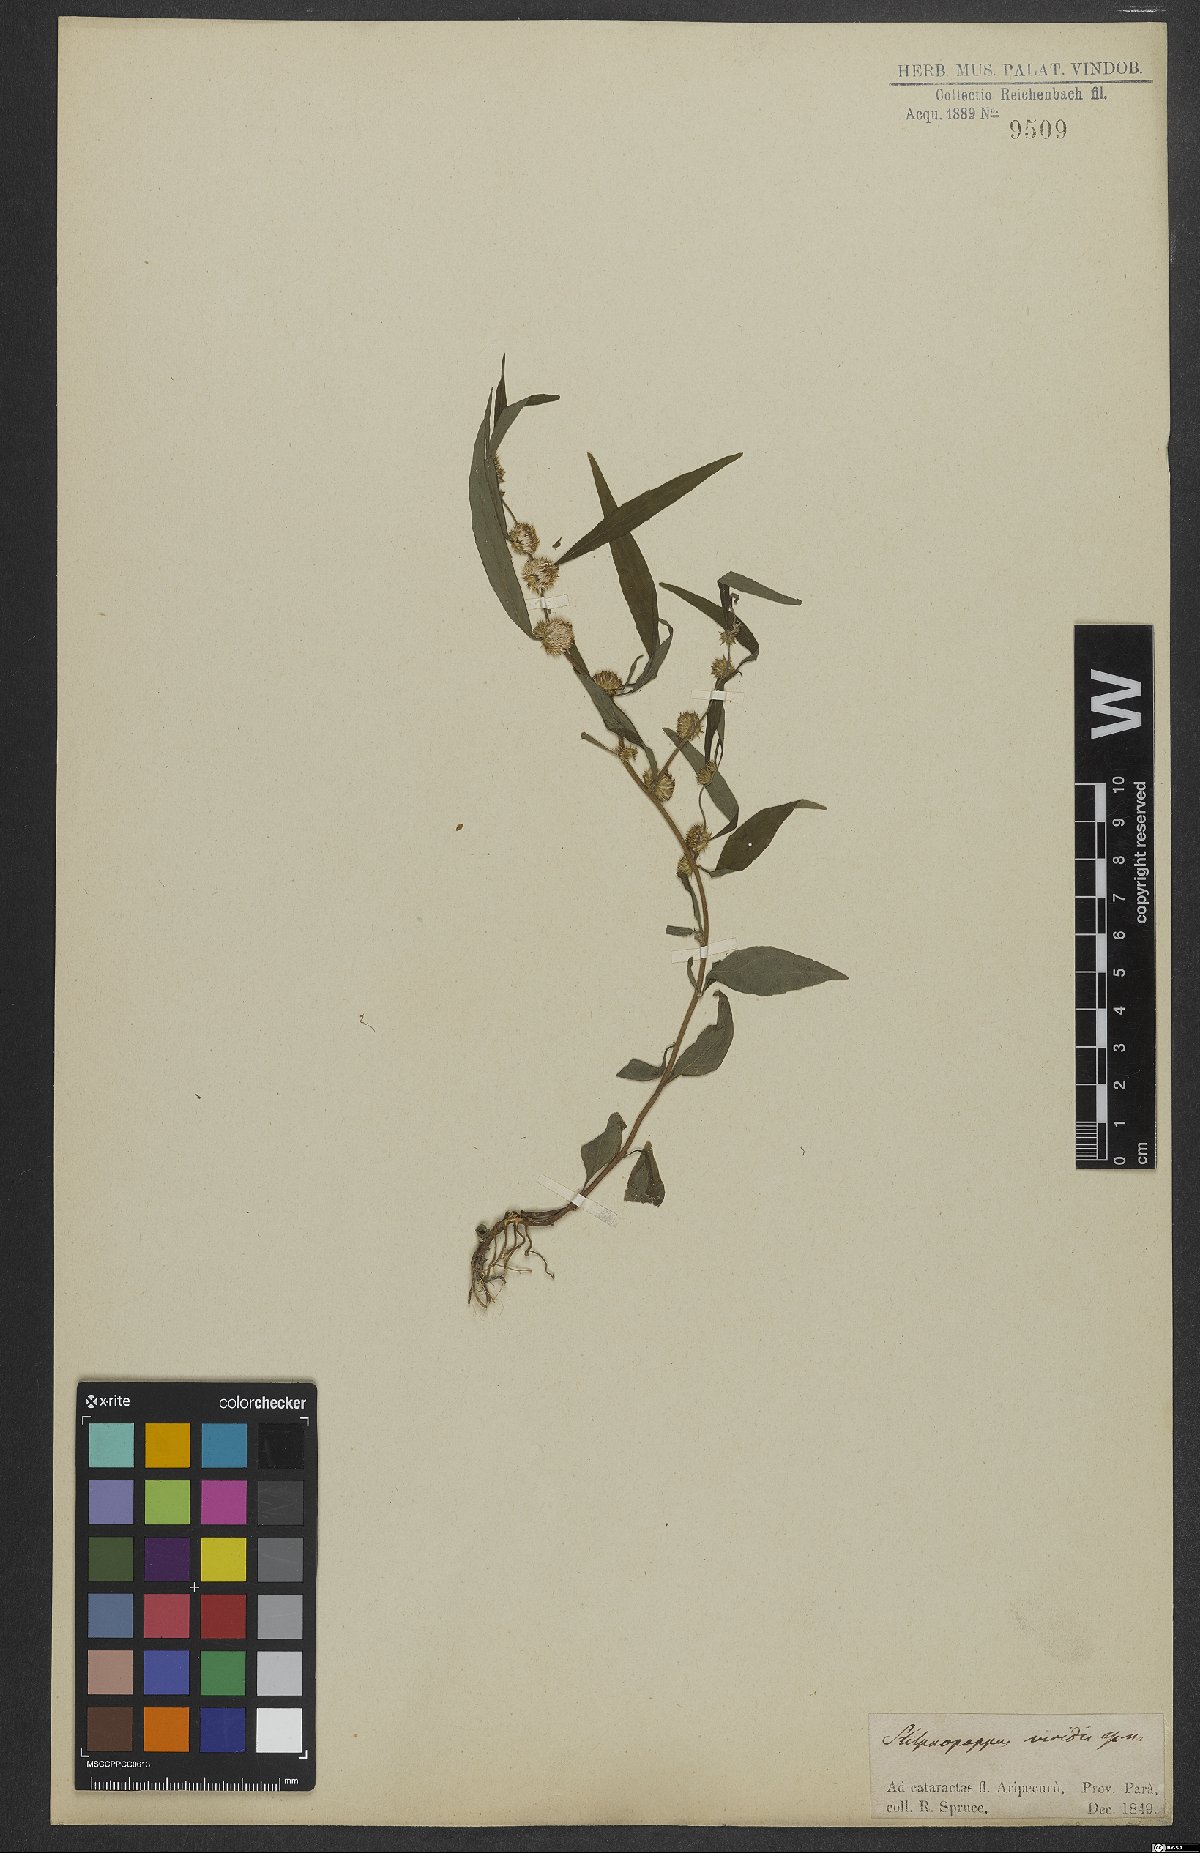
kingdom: Plantae
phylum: Tracheophyta
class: Magnoliopsida
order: Asterales
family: Asteraceae
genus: Xiphochaeta
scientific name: Xiphochaeta aquatica
